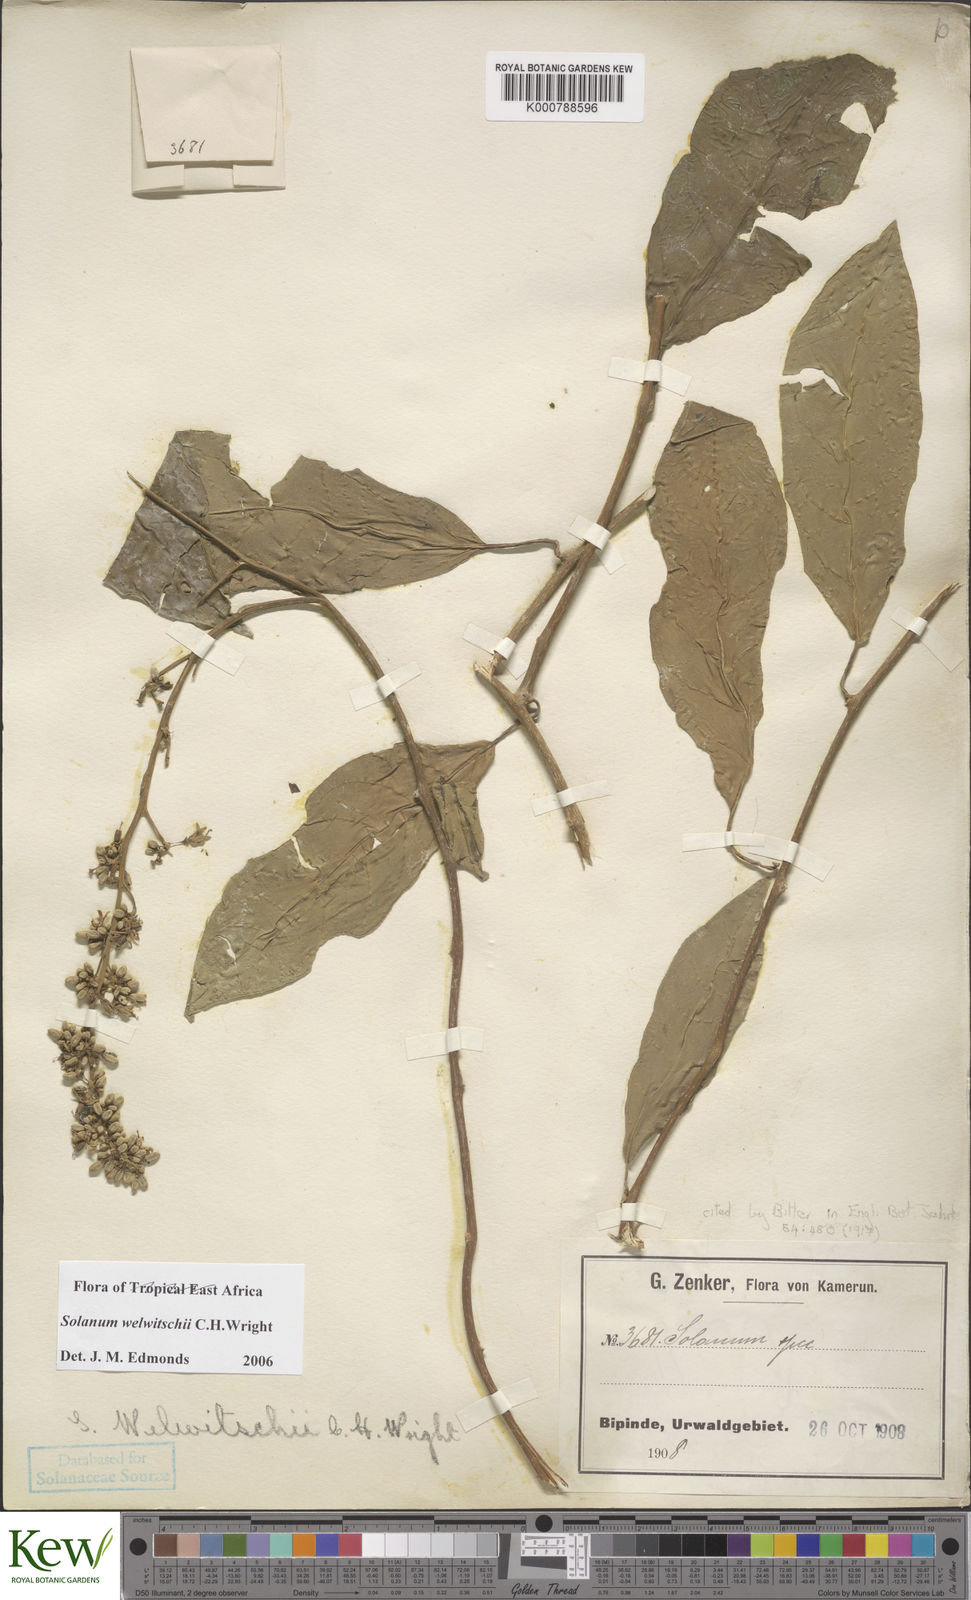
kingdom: Plantae
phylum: Tracheophyta
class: Magnoliopsida
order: Solanales
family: Solanaceae
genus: Solanum
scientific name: Solanum terminale
